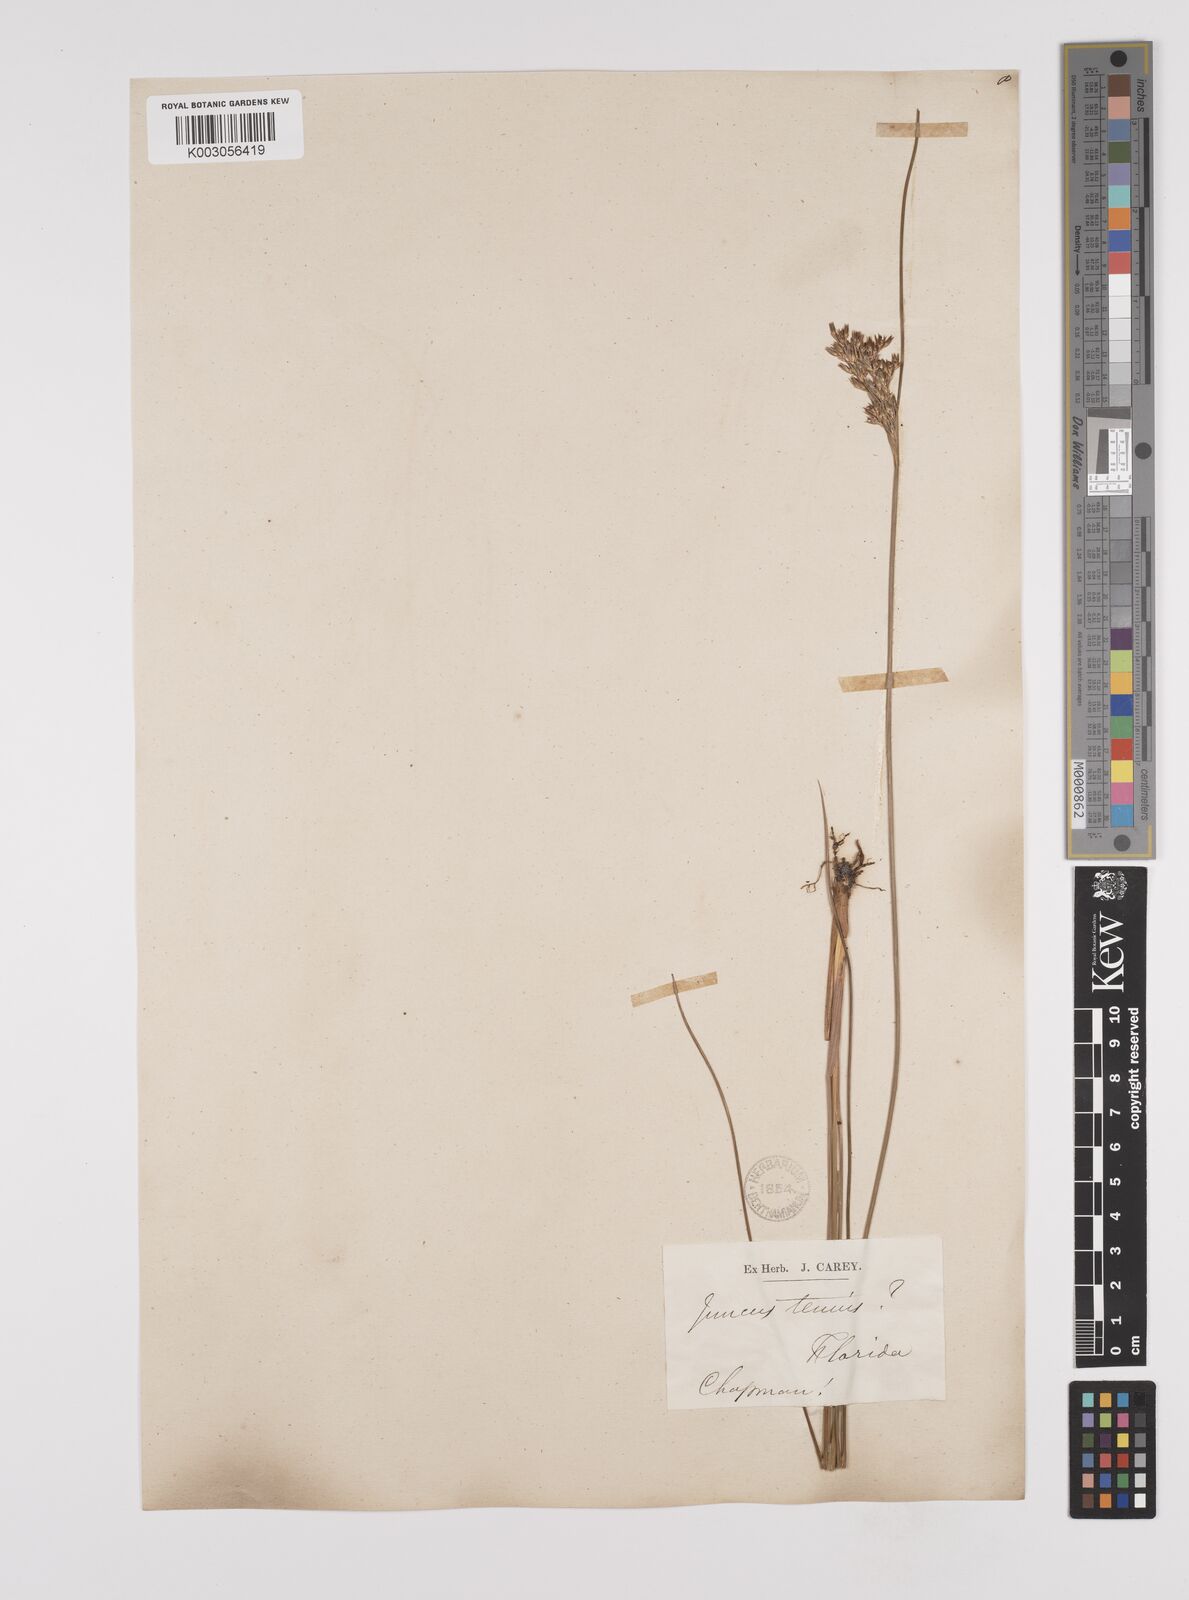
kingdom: Plantae
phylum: Tracheophyta
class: Liliopsida
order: Poales
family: Juncaceae
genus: Juncus
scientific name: Juncus tenuis
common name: Slender rush
